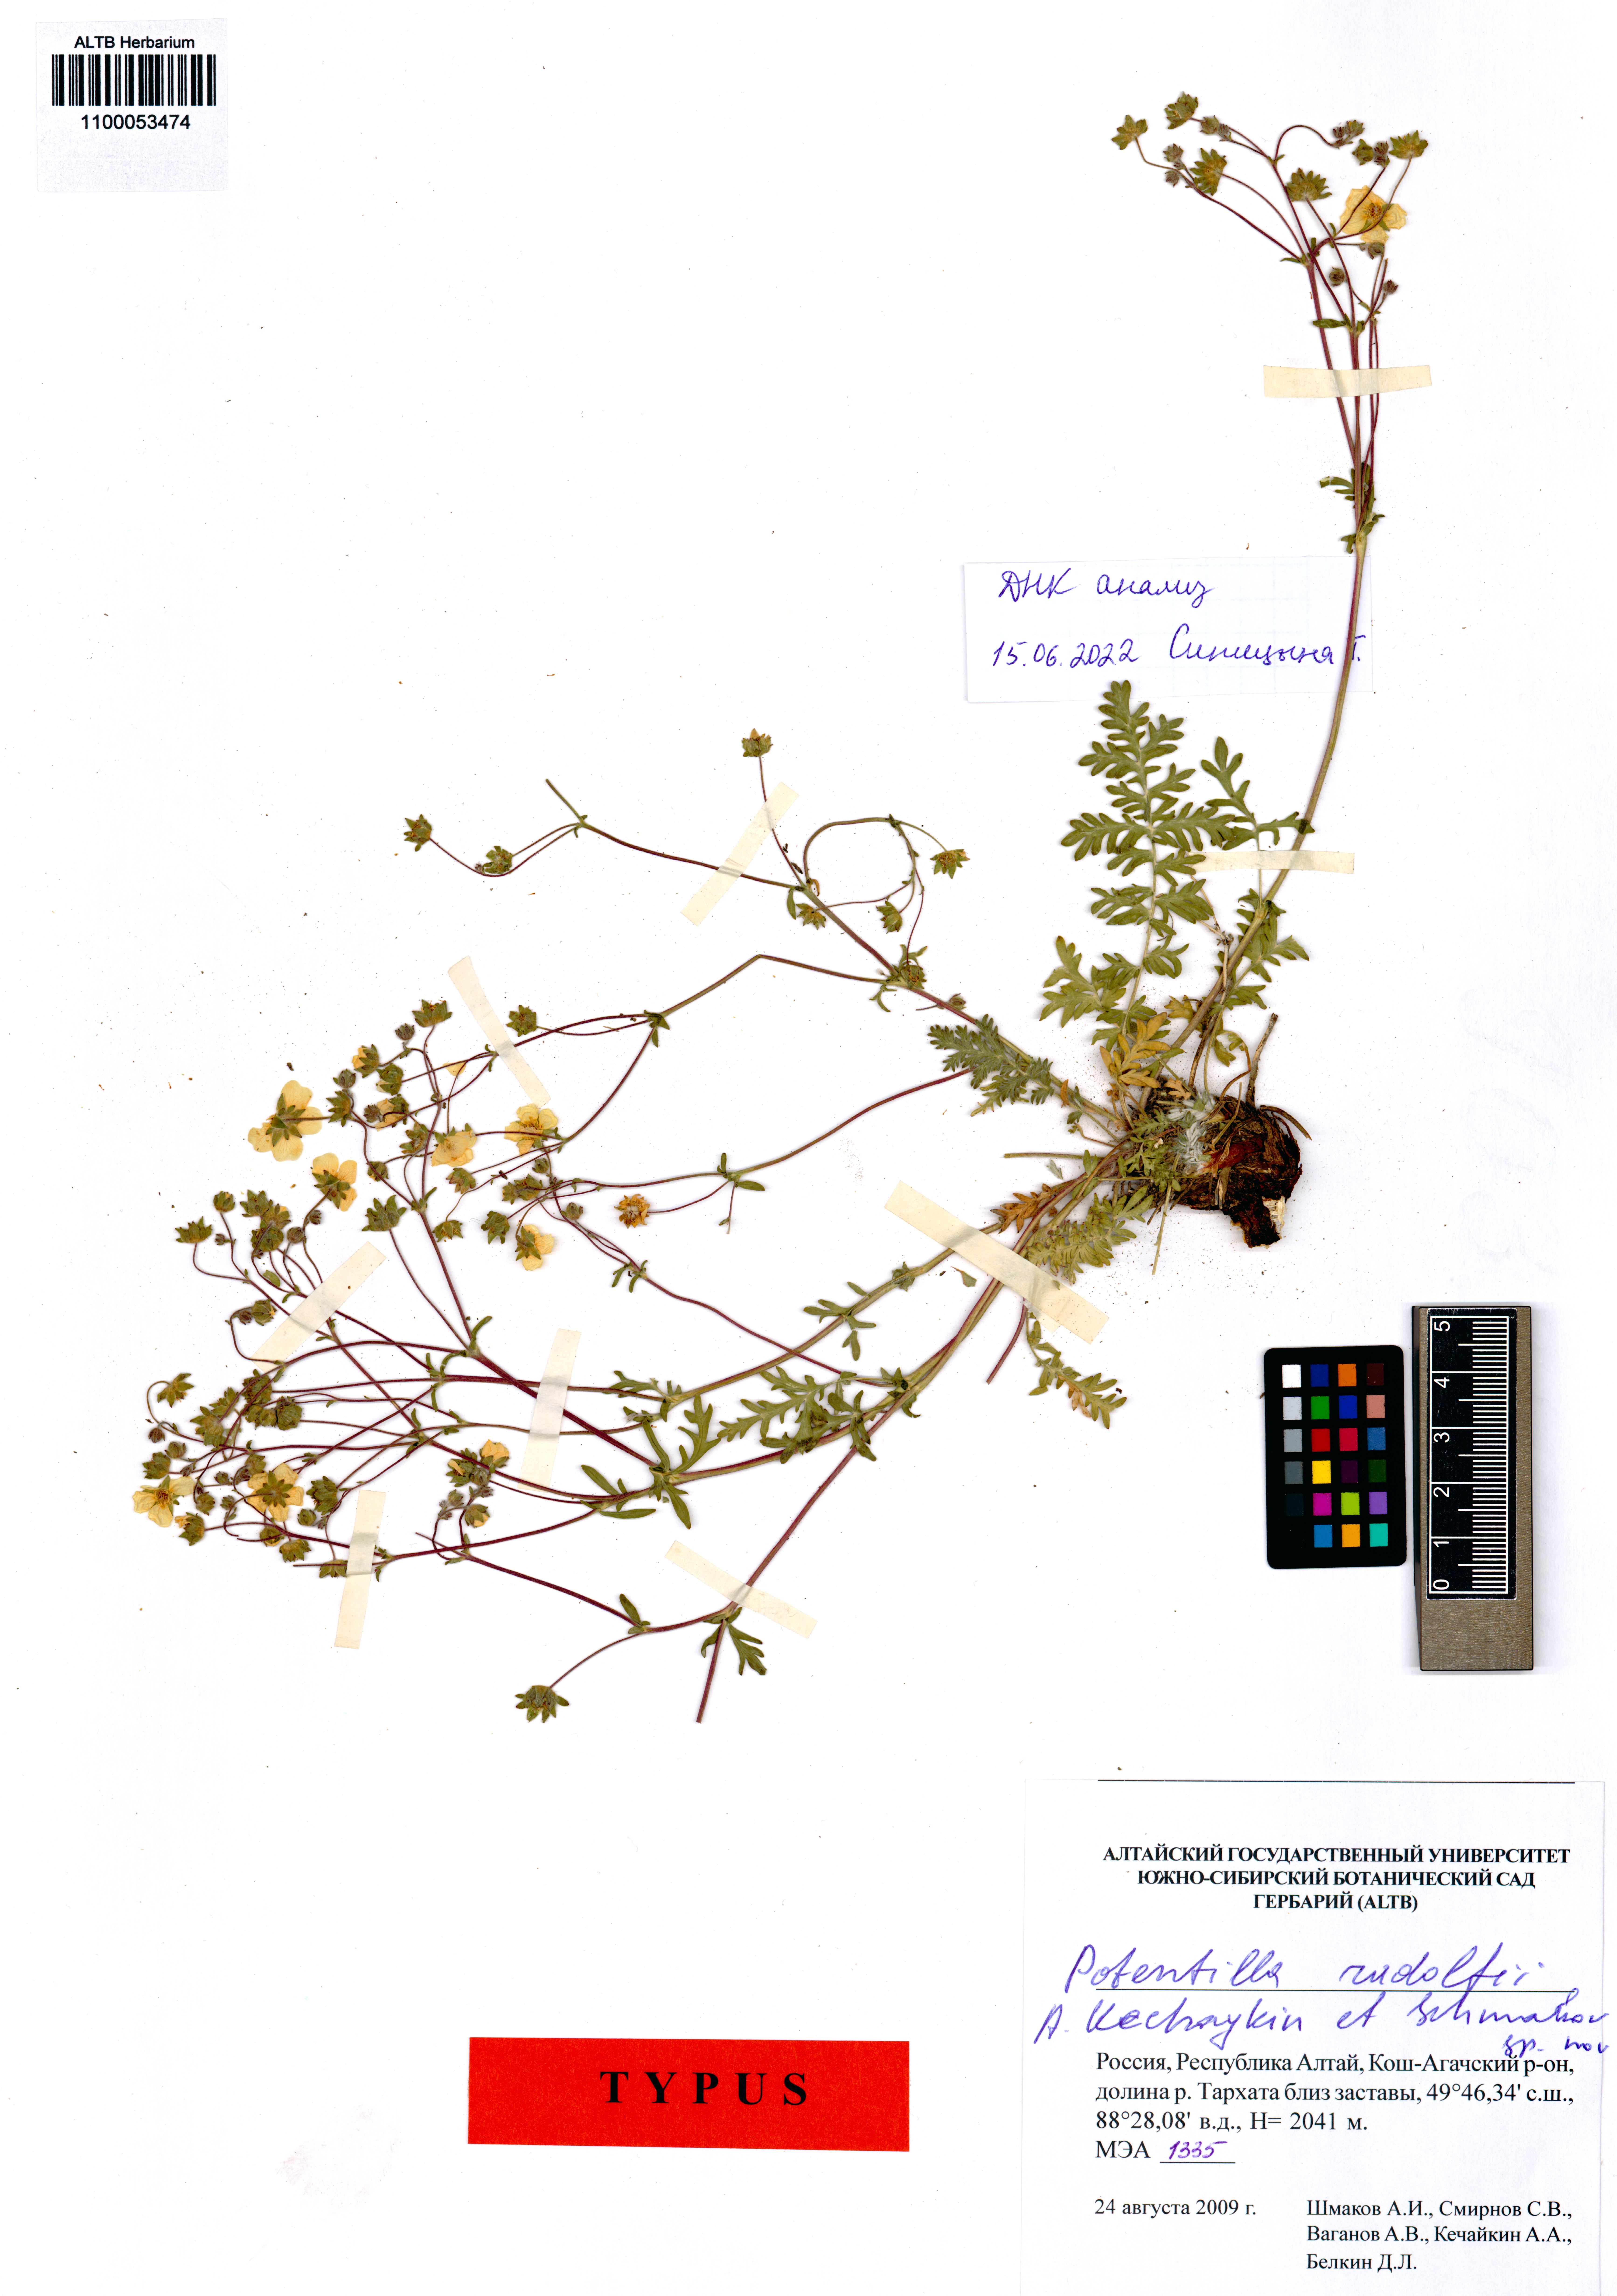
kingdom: Plantae
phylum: Tracheophyta
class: Magnoliopsida
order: Rosales
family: Rosaceae
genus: Potentilla
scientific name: Potentilla rudolfii
